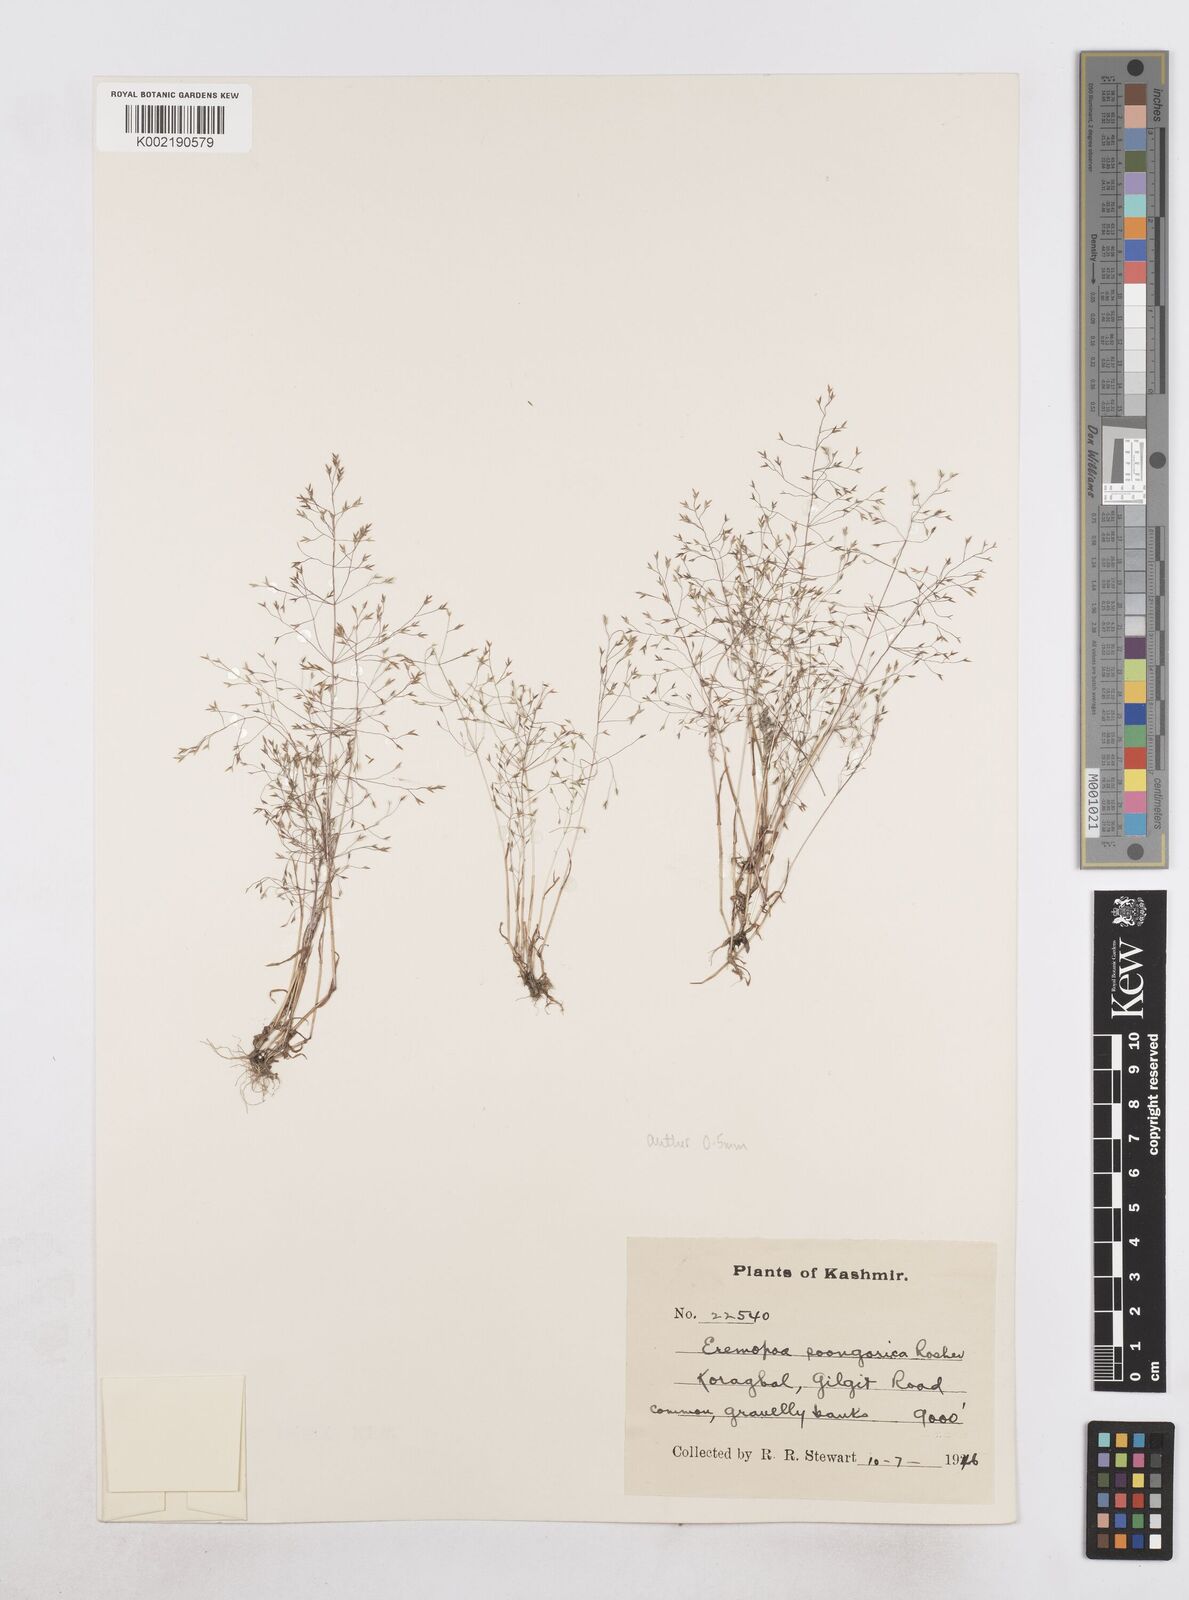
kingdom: Plantae
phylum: Tracheophyta
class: Liliopsida
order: Poales
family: Poaceae
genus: Poa
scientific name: Poa diaphora
